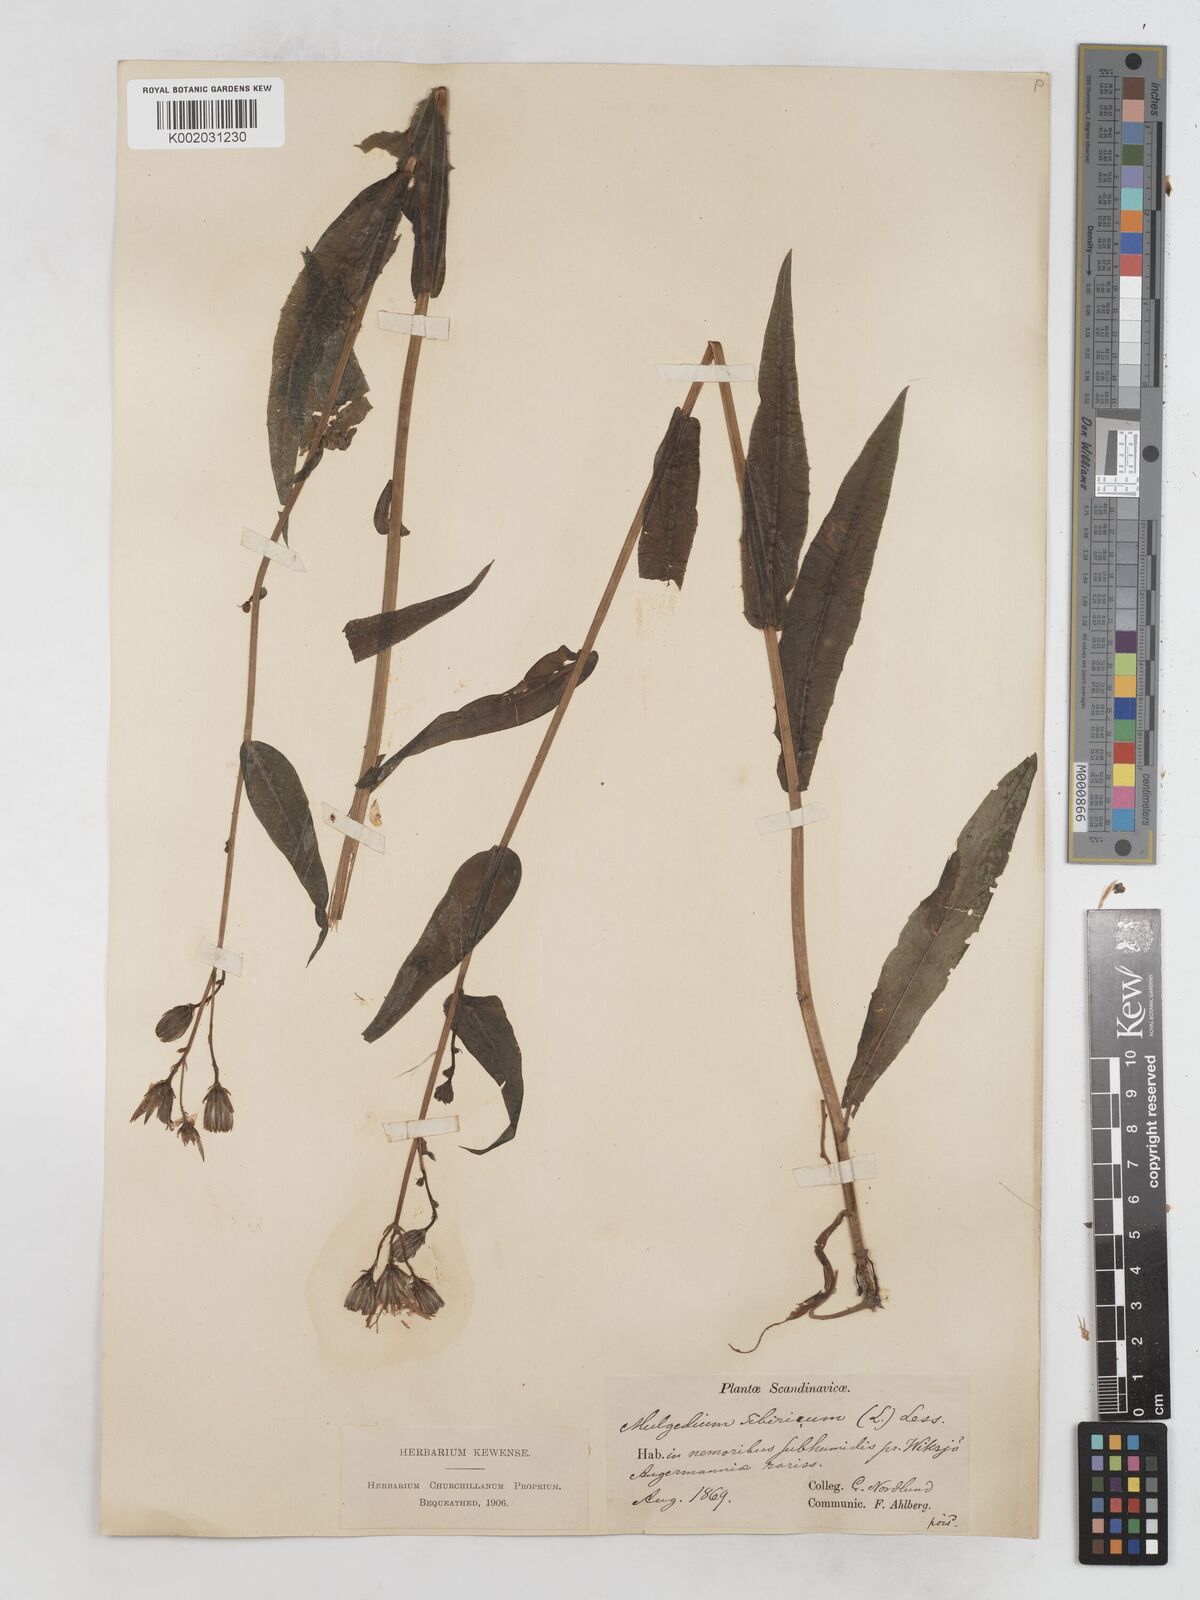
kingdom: Plantae
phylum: Tracheophyta
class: Magnoliopsida
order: Asterales
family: Asteraceae
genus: Lactuca
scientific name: Lactuca sibirica
